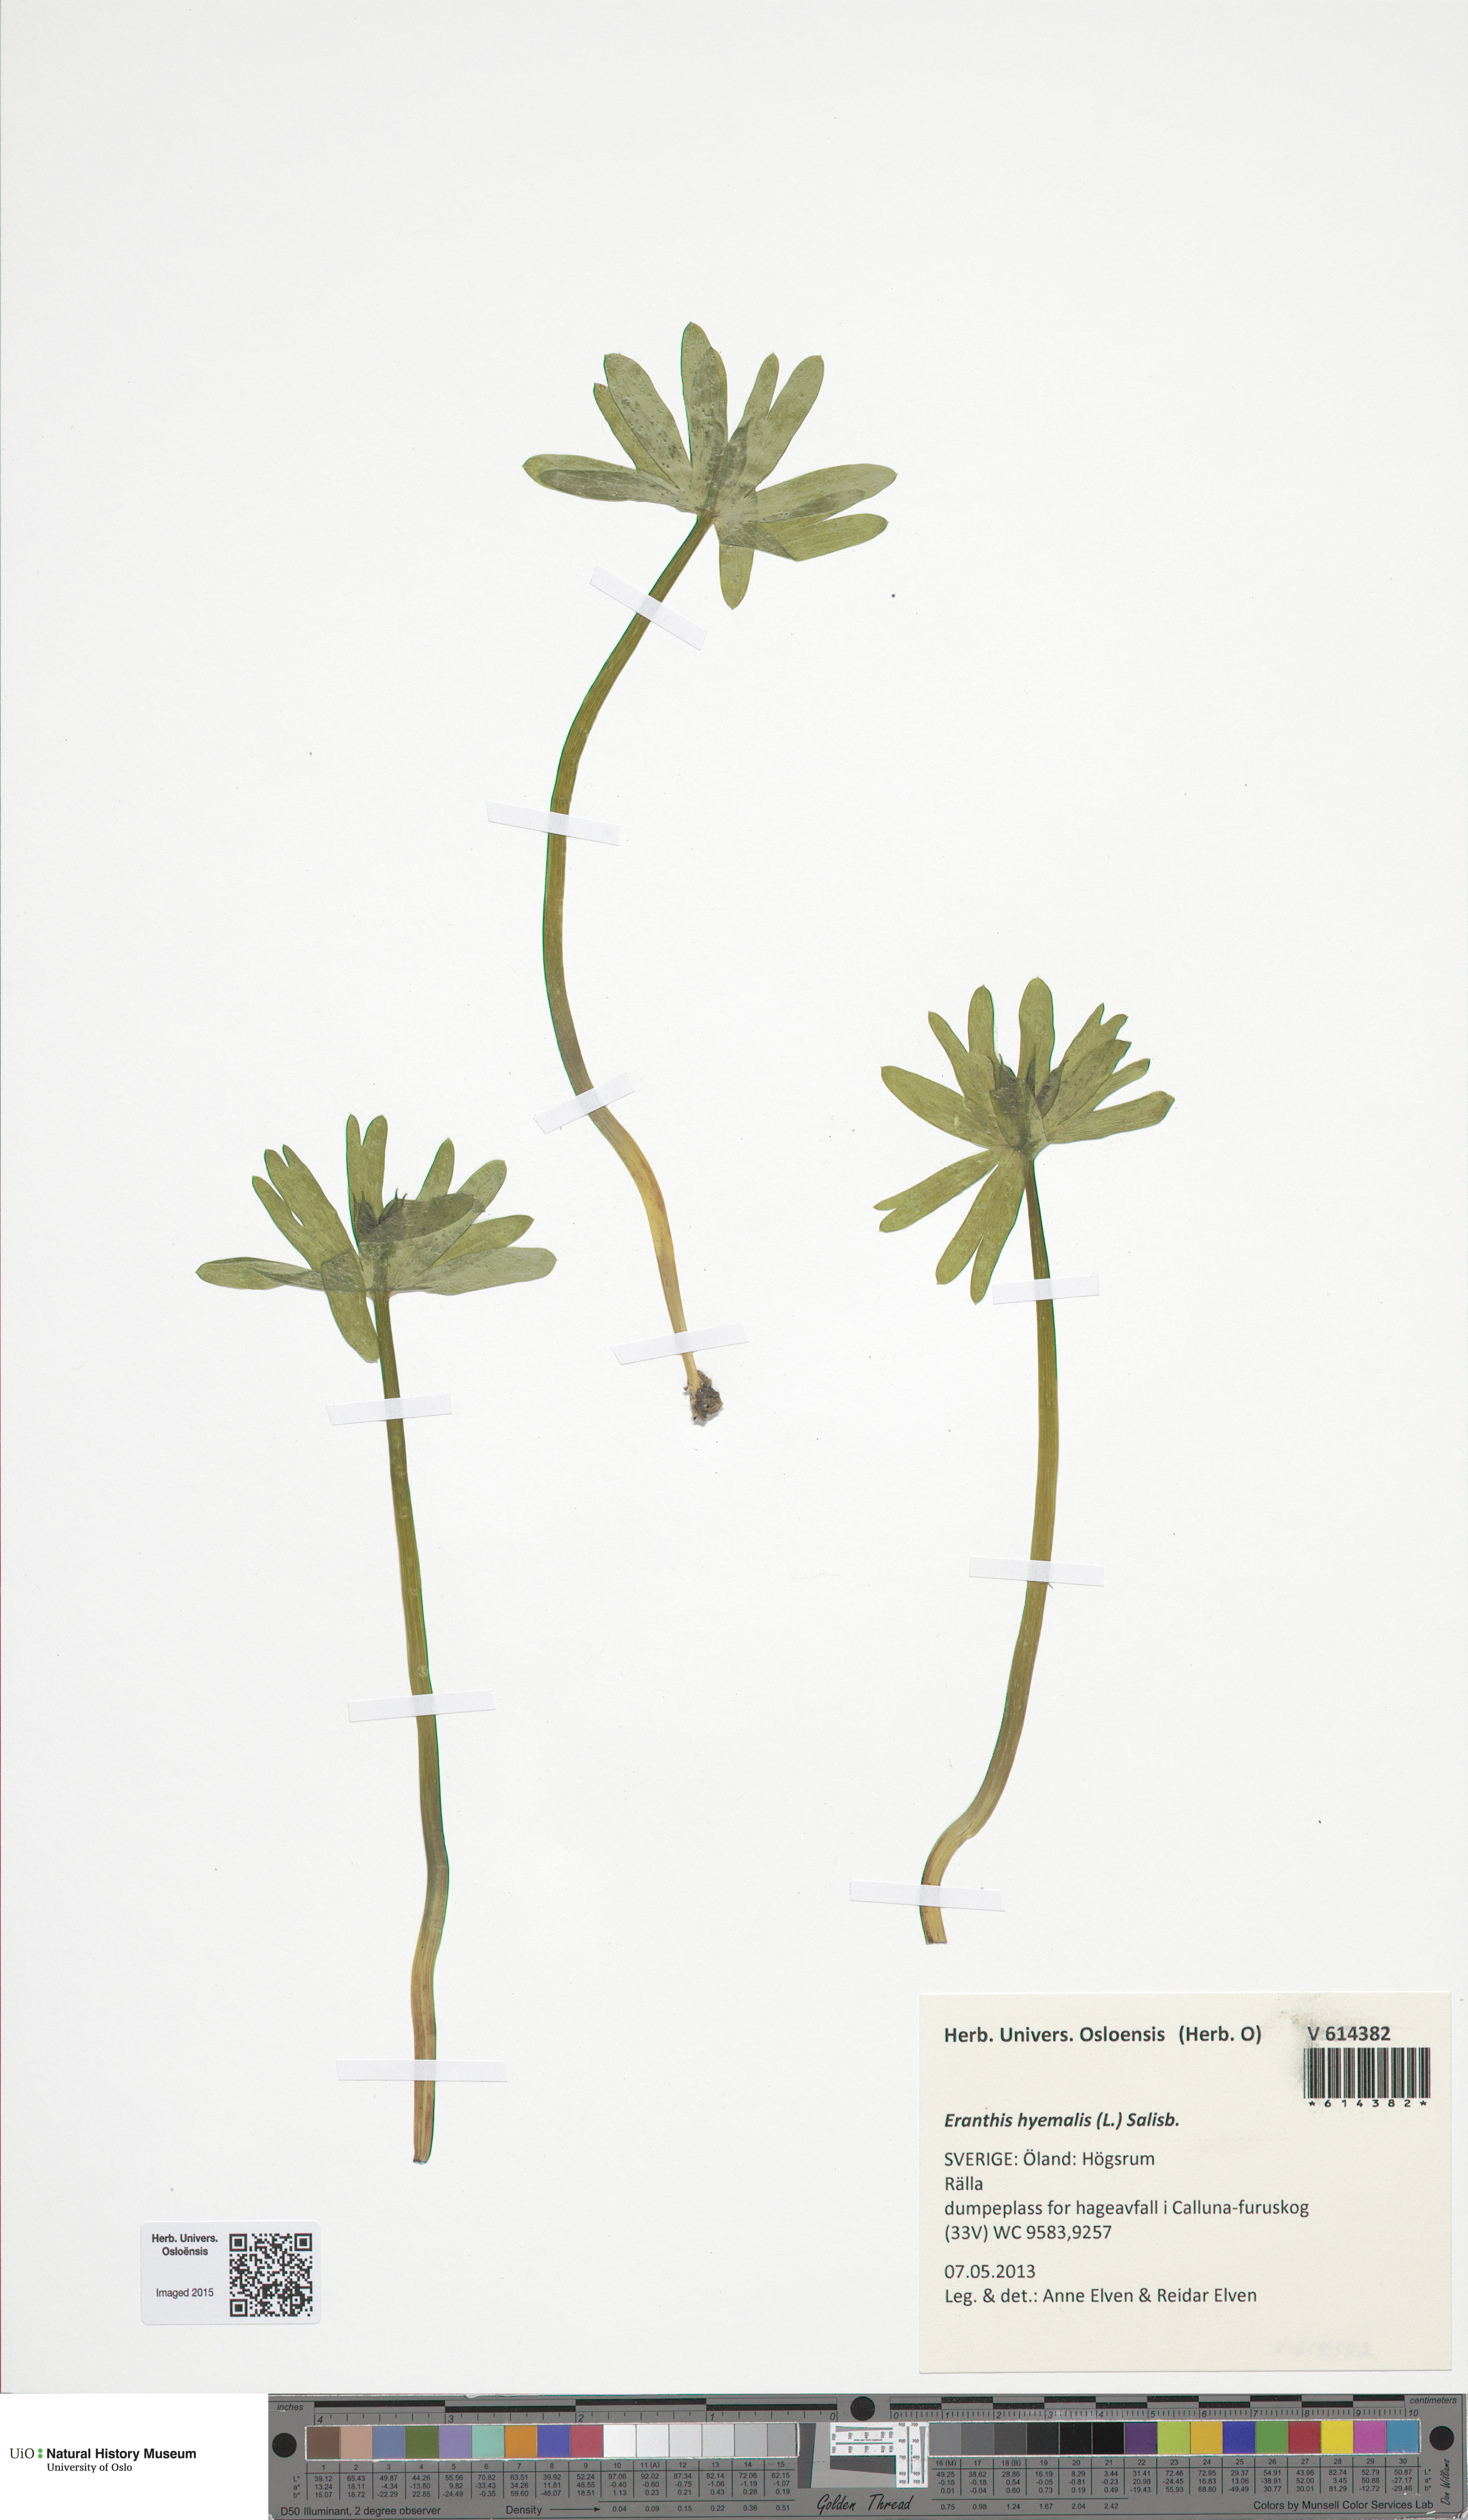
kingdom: Plantae
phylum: Tracheophyta
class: Magnoliopsida
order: Ranunculales
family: Ranunculaceae
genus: Eranthis
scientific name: Eranthis hyemalis
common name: Winter aconite
